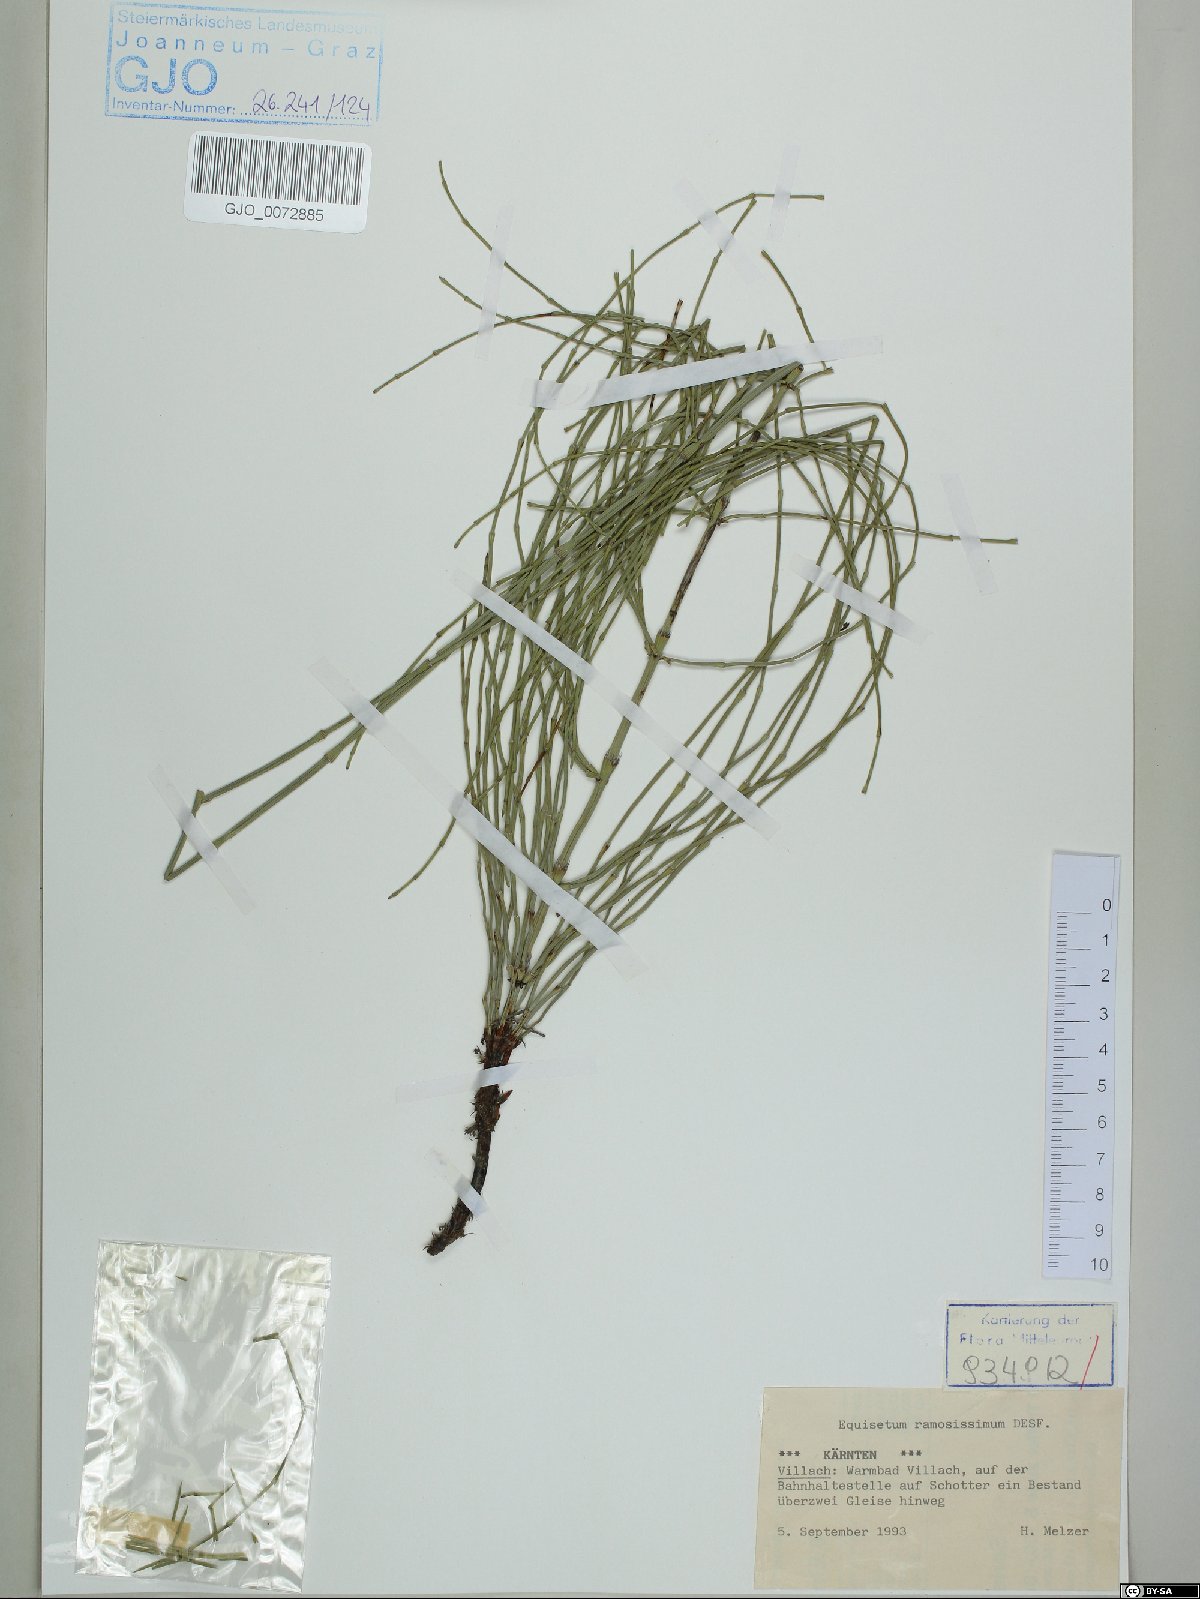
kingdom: Plantae
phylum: Tracheophyta
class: Polypodiopsida
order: Equisetales
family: Equisetaceae
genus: Equisetum
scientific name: Equisetum ramosissimum
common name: Branched horsetail
